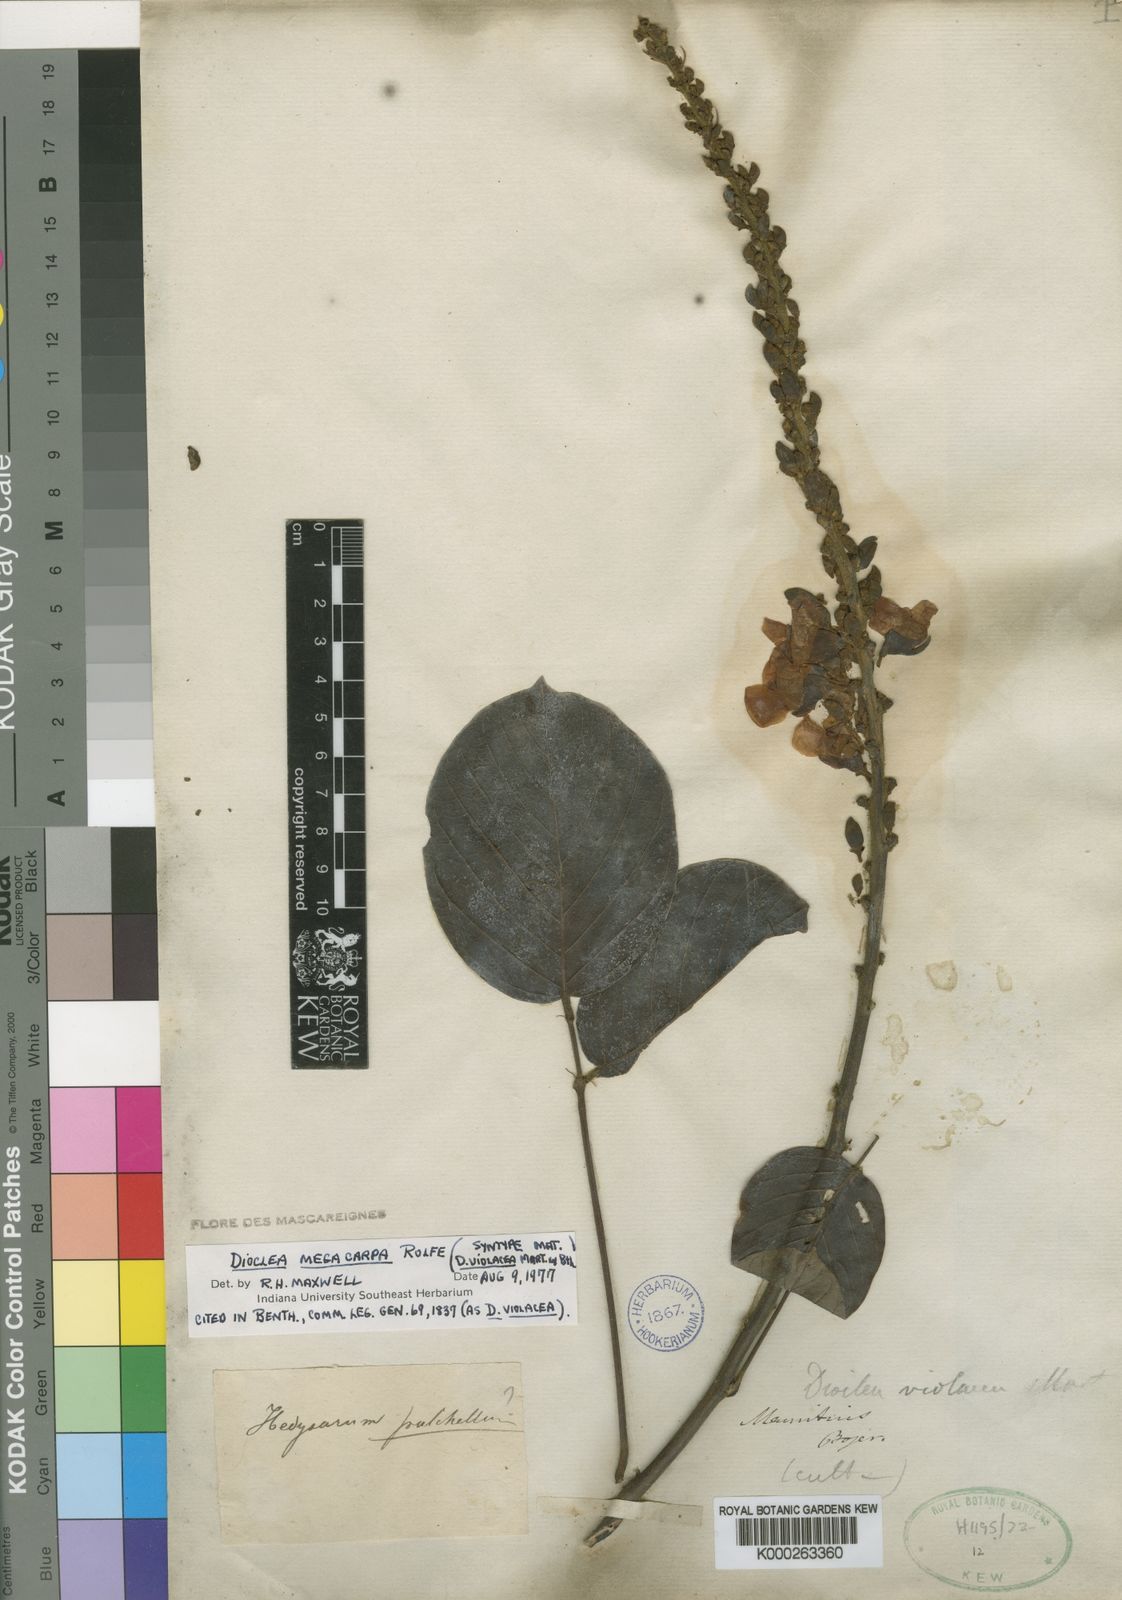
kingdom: Plantae
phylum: Tracheophyta
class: Magnoliopsida
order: Fabales
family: Fabaceae
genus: Macropsychanthus
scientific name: Macropsychanthus megacarpus
